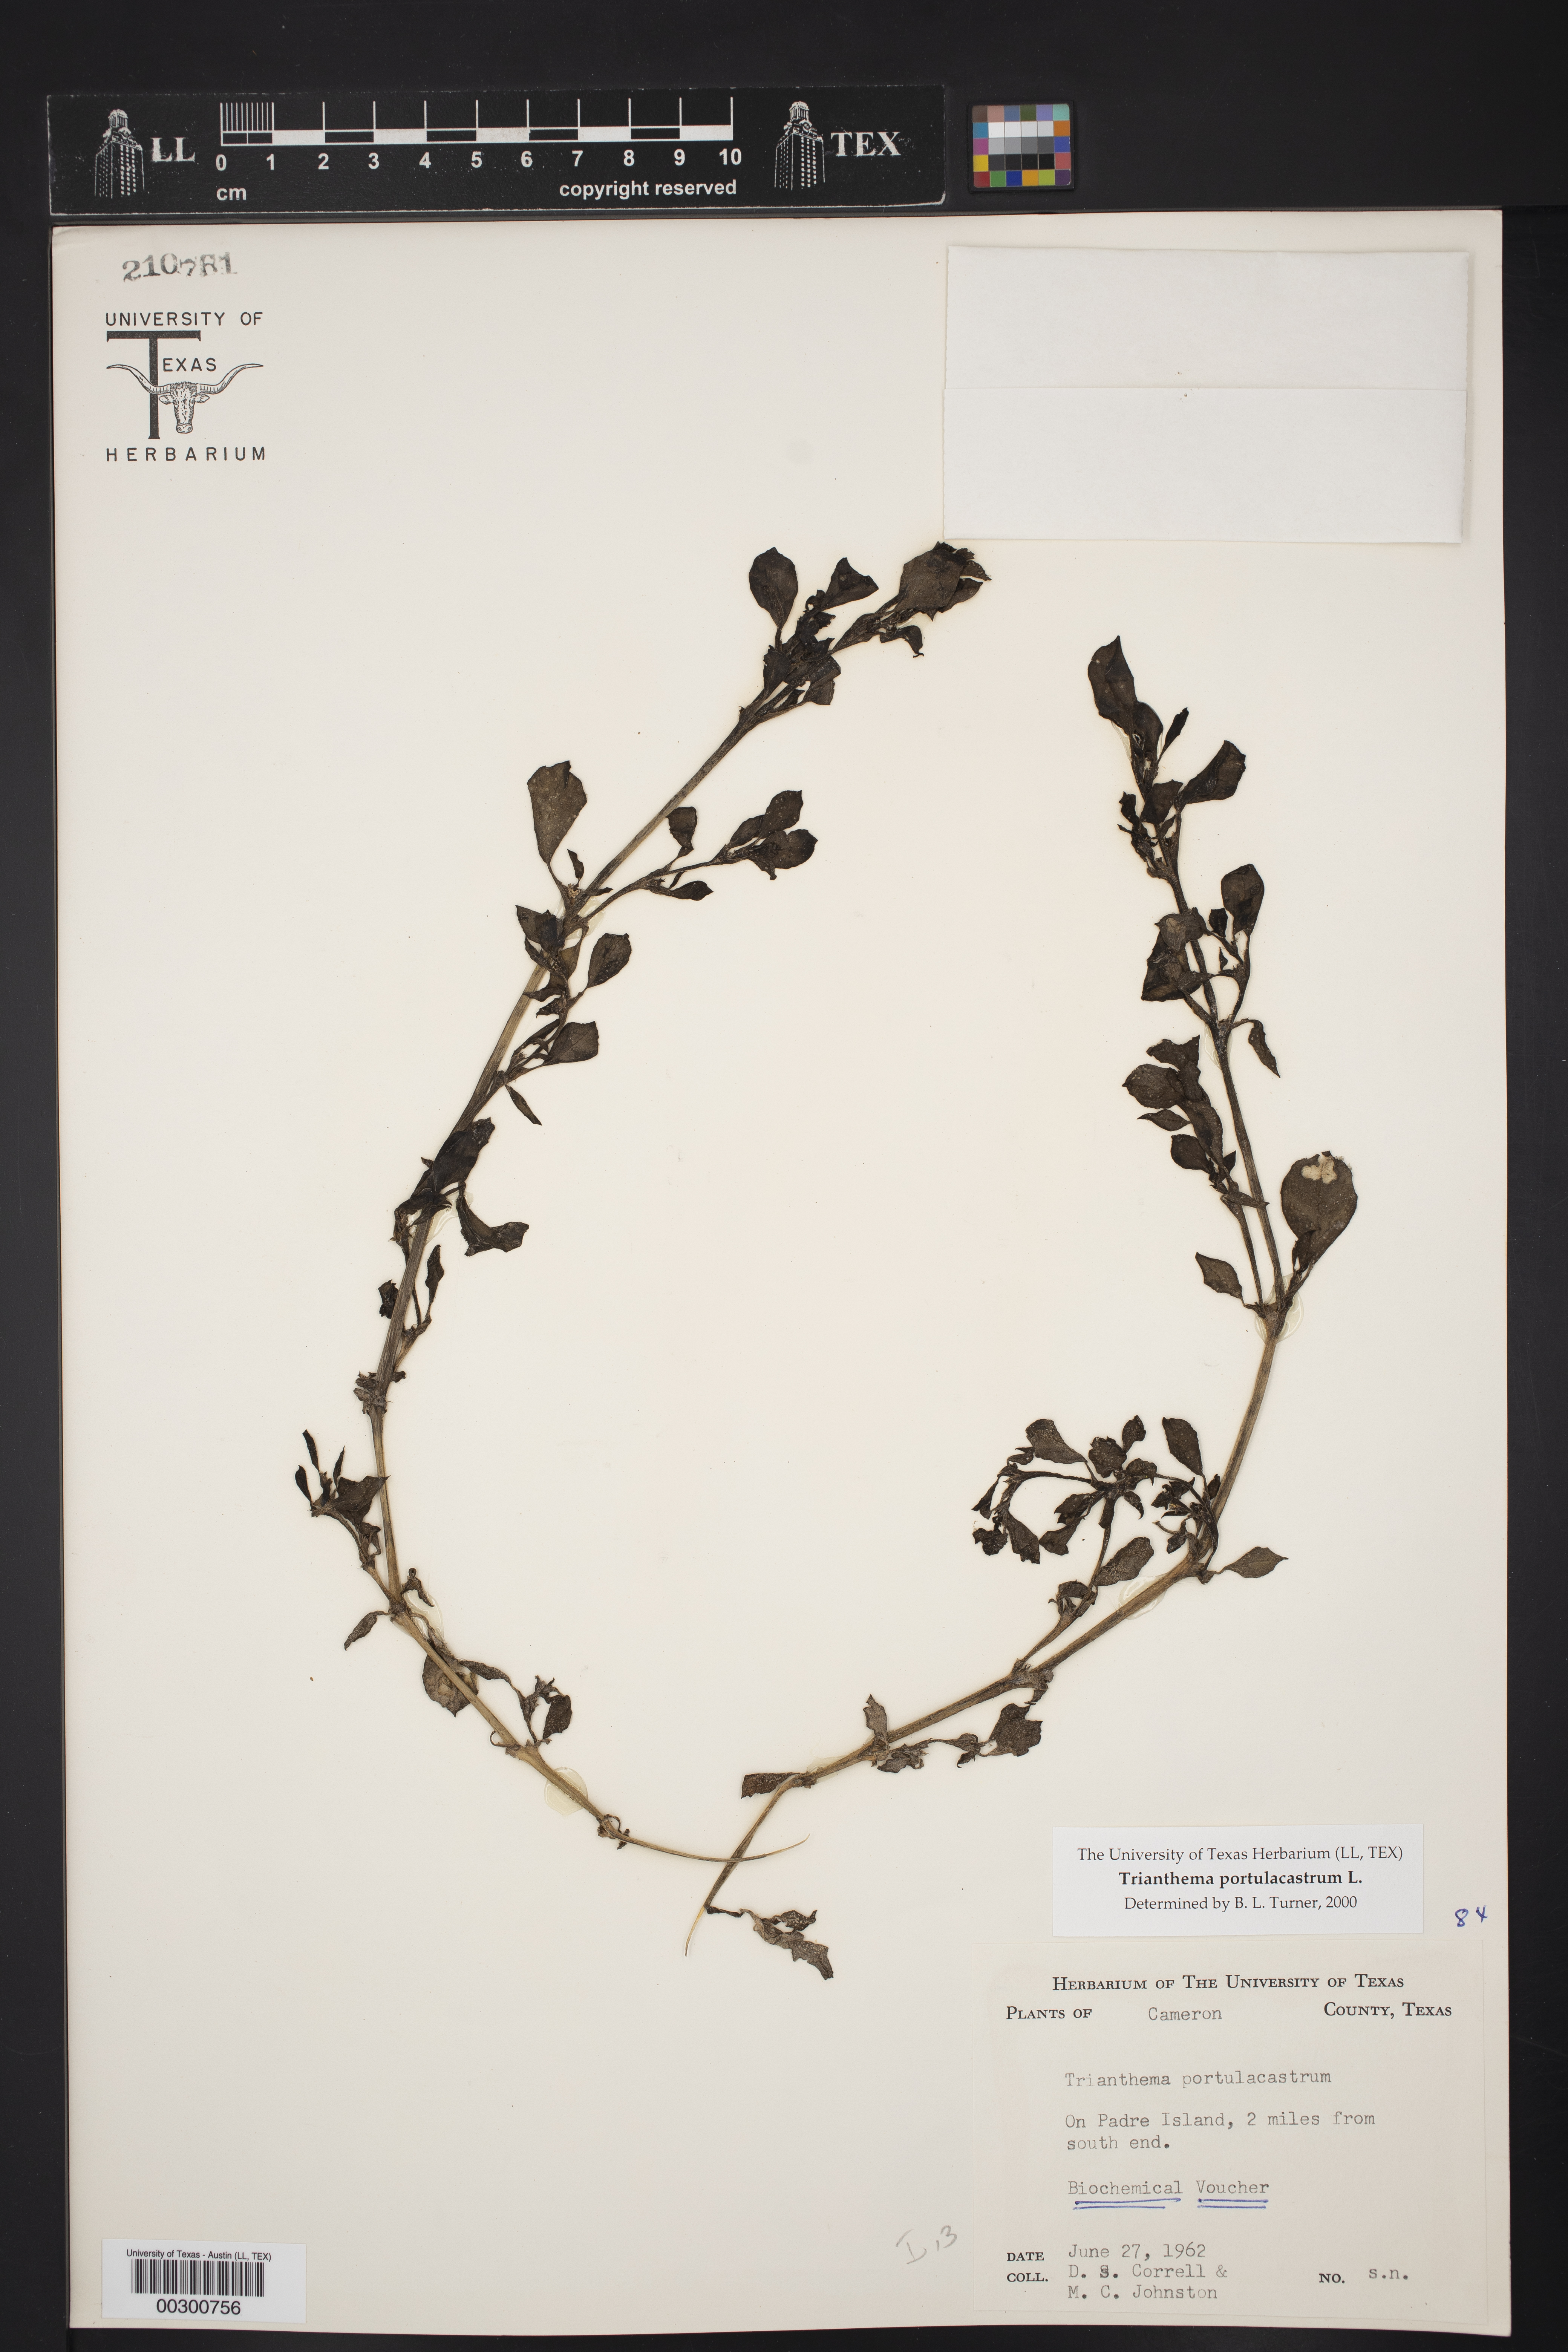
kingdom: Plantae
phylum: Tracheophyta
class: Magnoliopsida
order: Caryophyllales
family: Aizoaceae
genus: Trianthema
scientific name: Trianthema portulacastrum
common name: Desert horsepurslane
